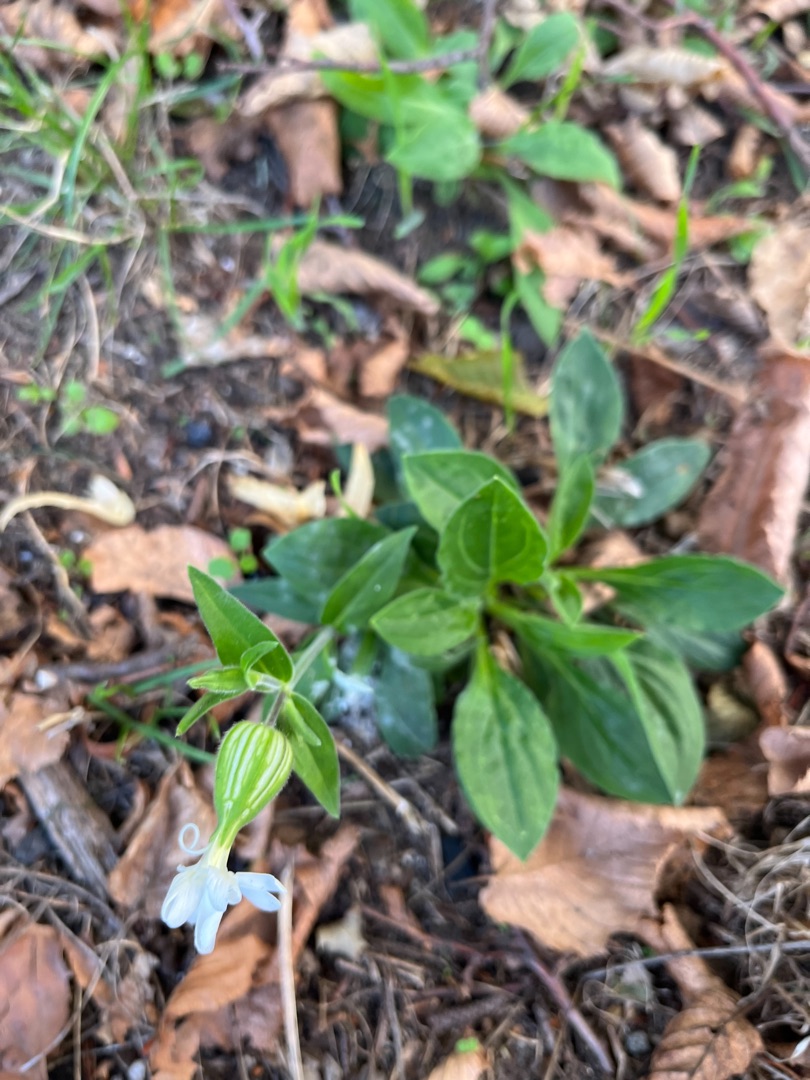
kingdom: Plantae
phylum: Tracheophyta
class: Magnoliopsida
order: Caryophyllales
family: Caryophyllaceae
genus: Silene
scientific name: Silene latifolia
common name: Aftenpragtstjerne
